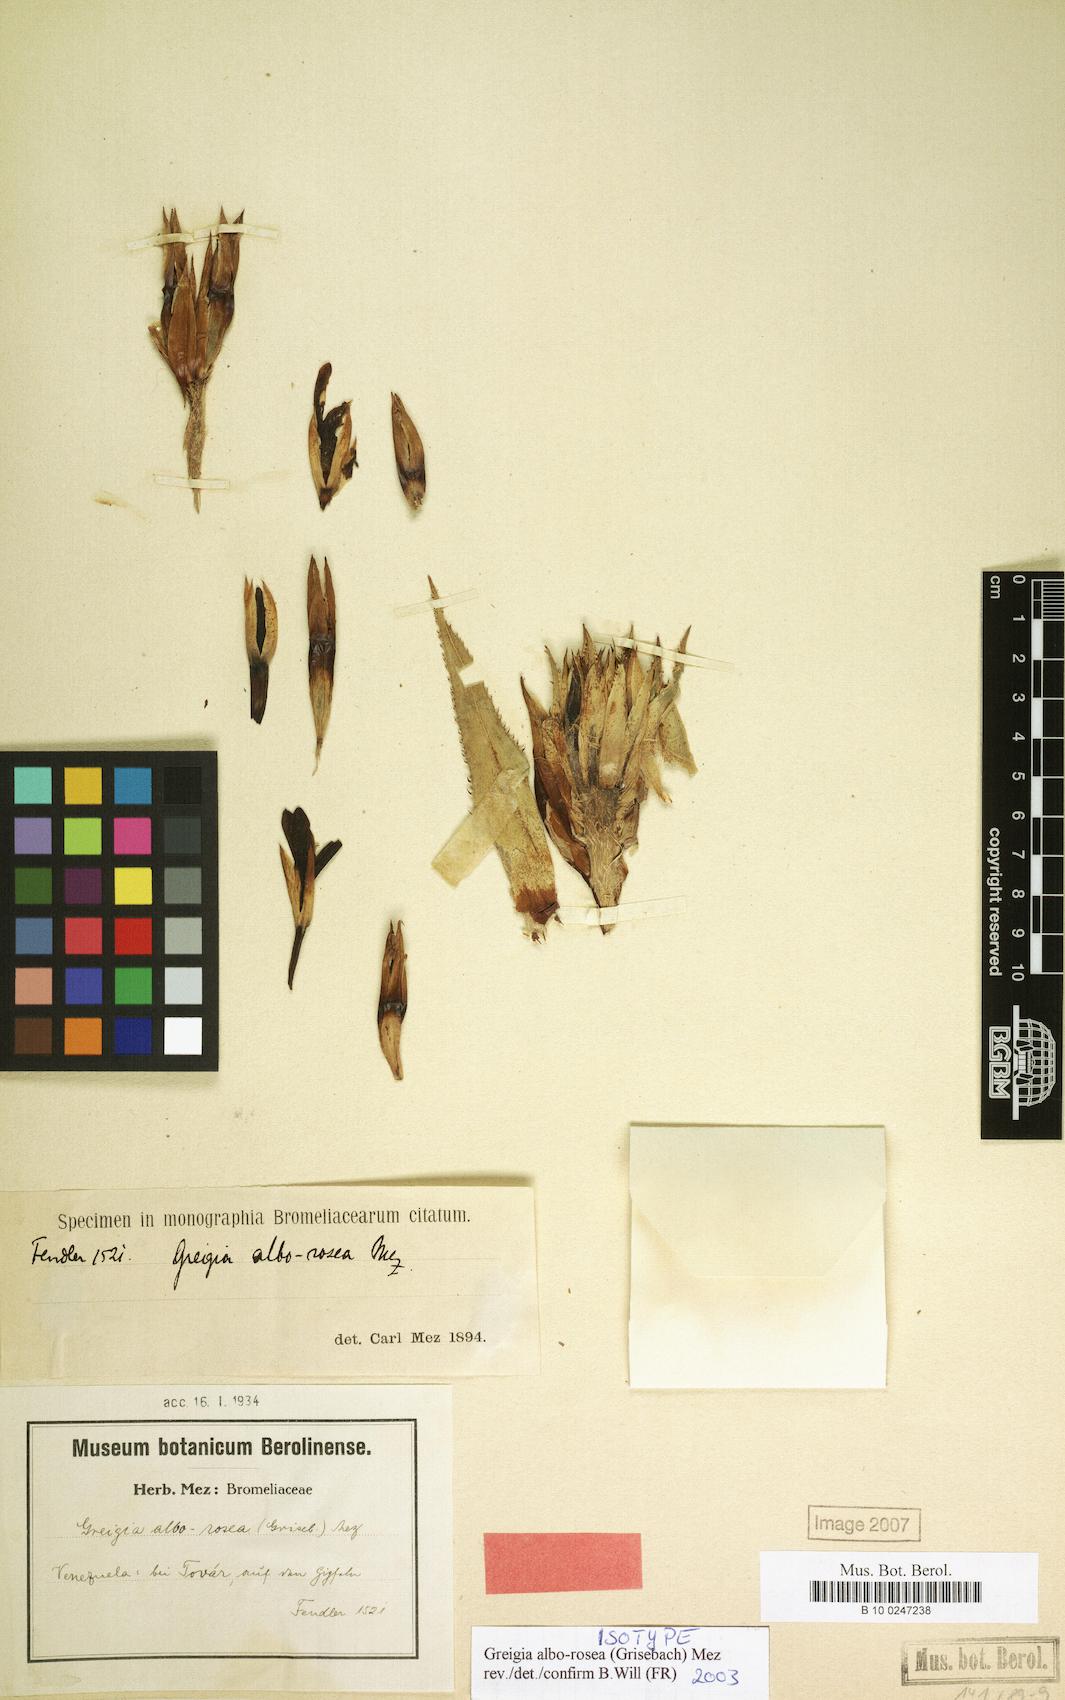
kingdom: Plantae
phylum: Tracheophyta
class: Liliopsida
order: Poales
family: Bromeliaceae
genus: Greigia
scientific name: Greigia alborosea
